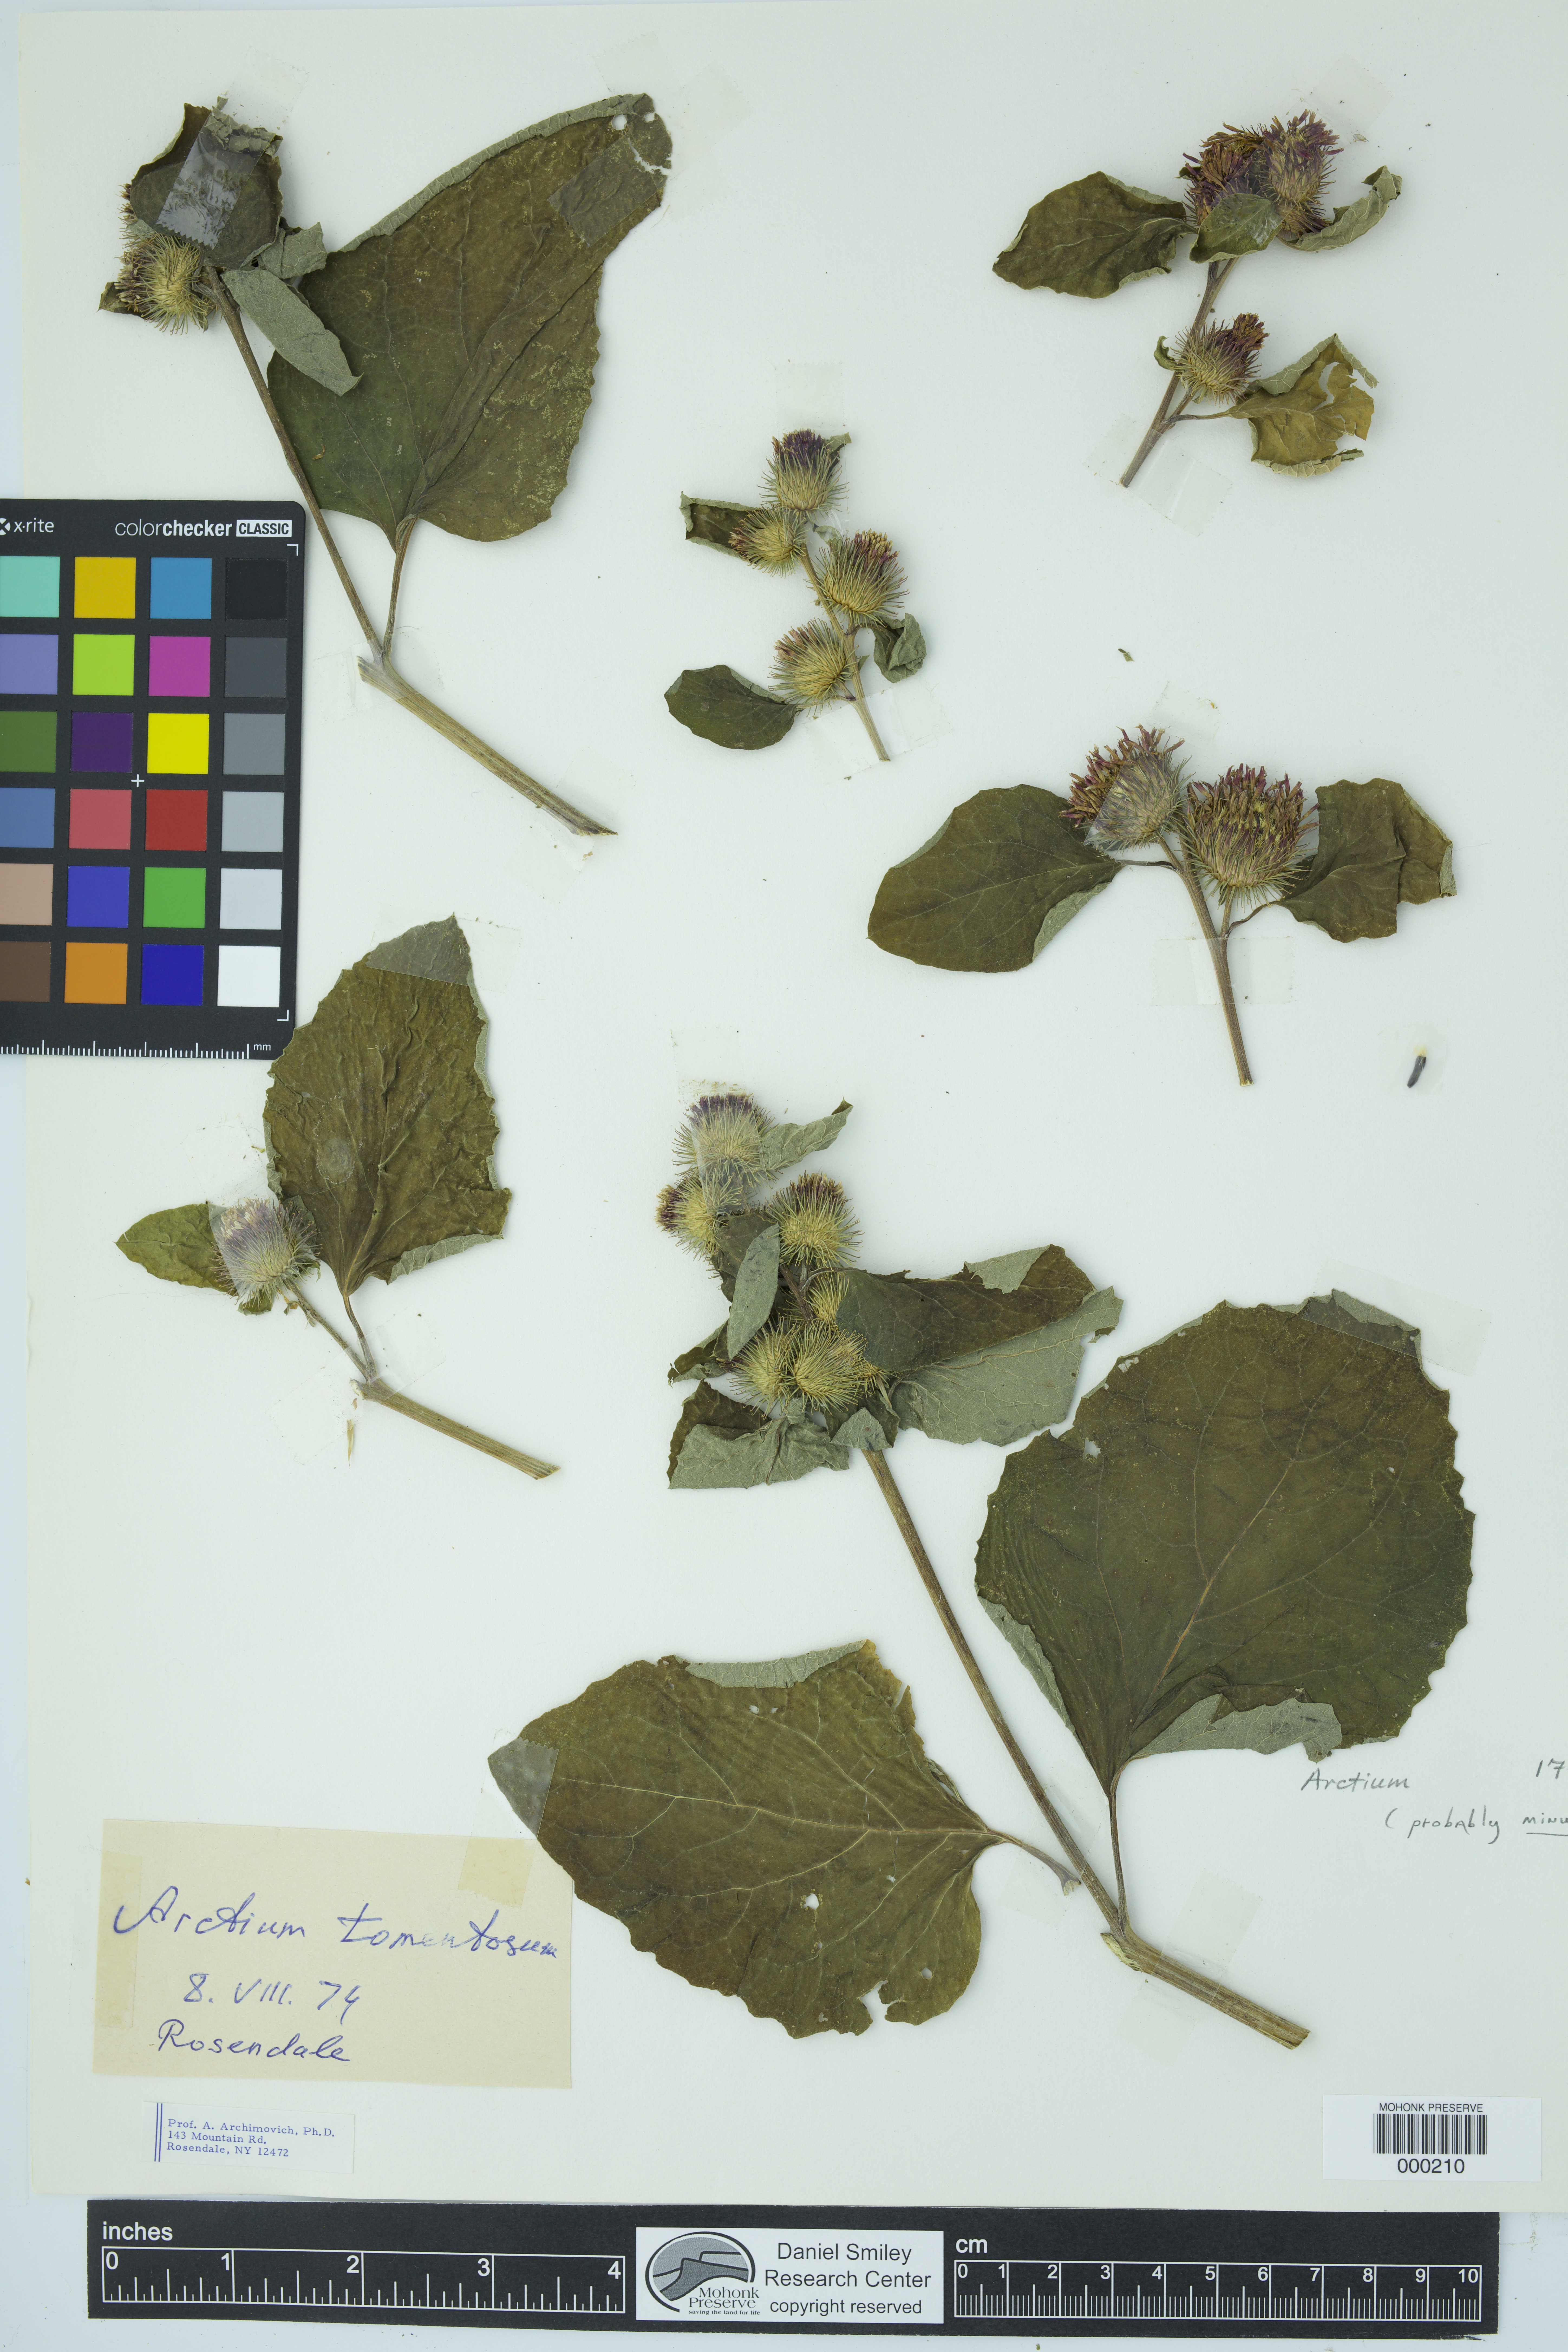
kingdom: Plantae
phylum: Tracheophyta
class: Magnoliopsida
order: Asterales
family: Asteraceae
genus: Arctium
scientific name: Arctium minus
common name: Lesser burdock
